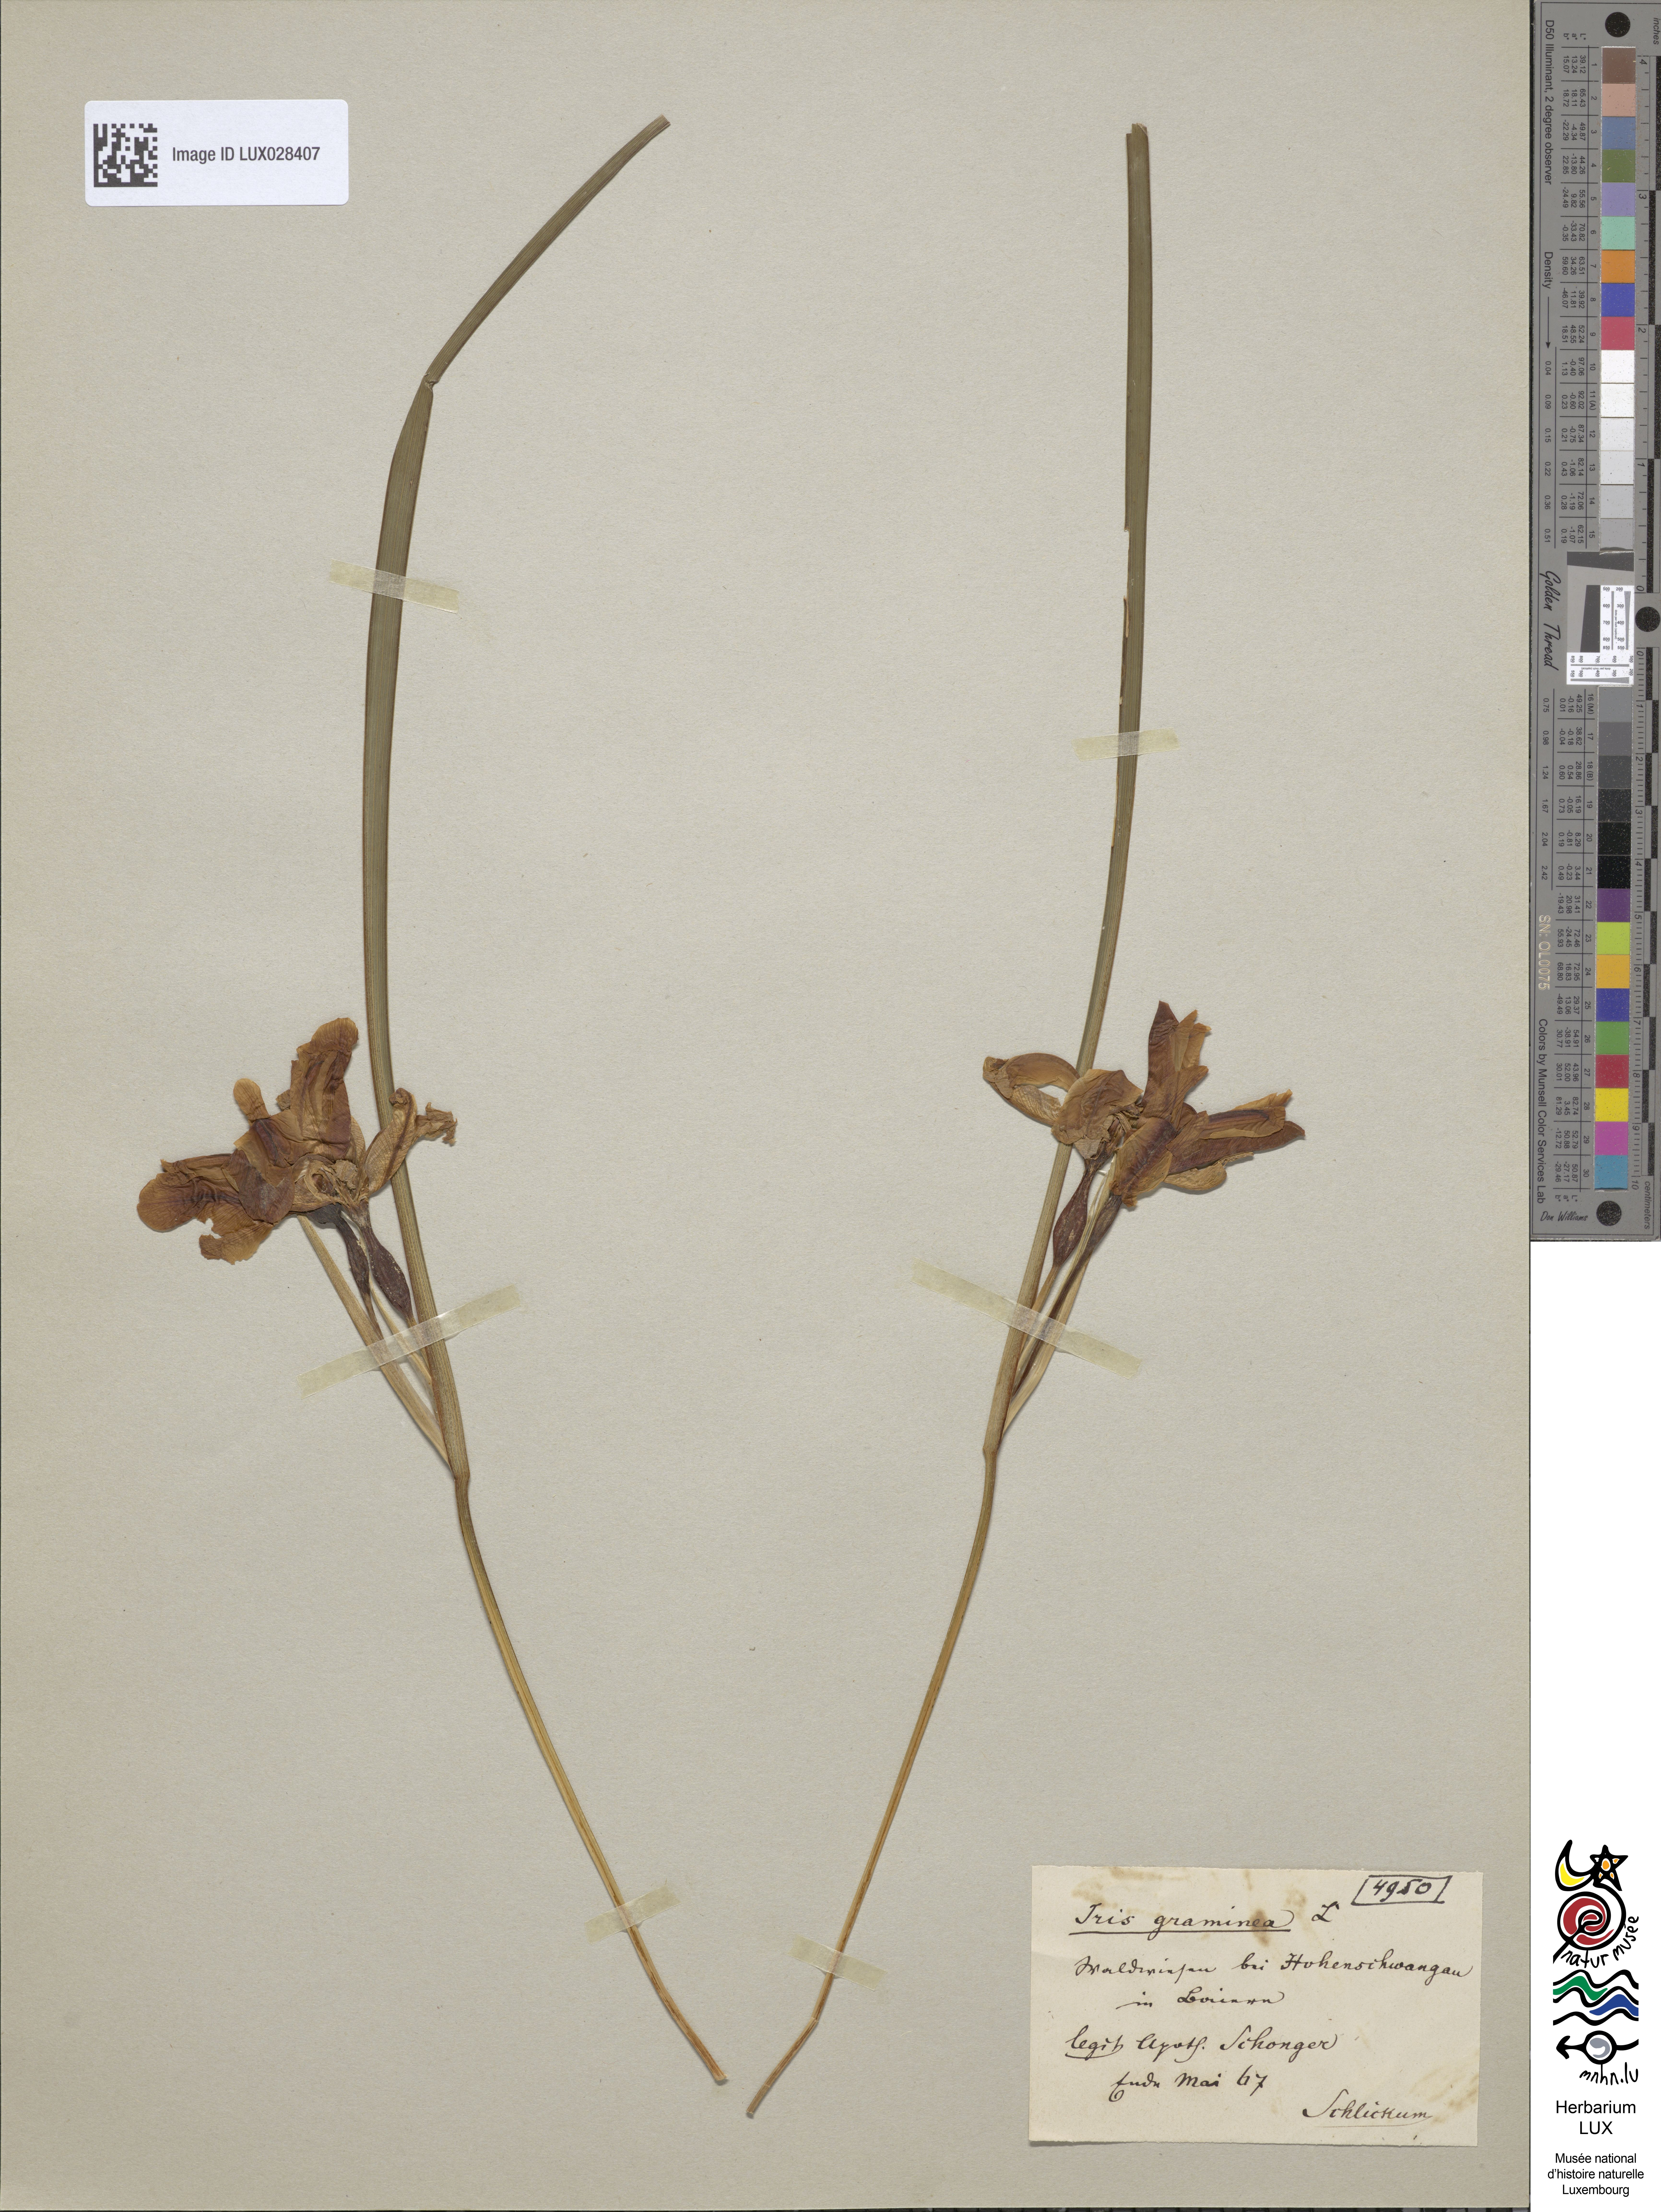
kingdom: Animalia
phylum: Arthropoda
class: Insecta
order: Mantodea
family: Eremiaphilidae
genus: Iris
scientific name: Iris
